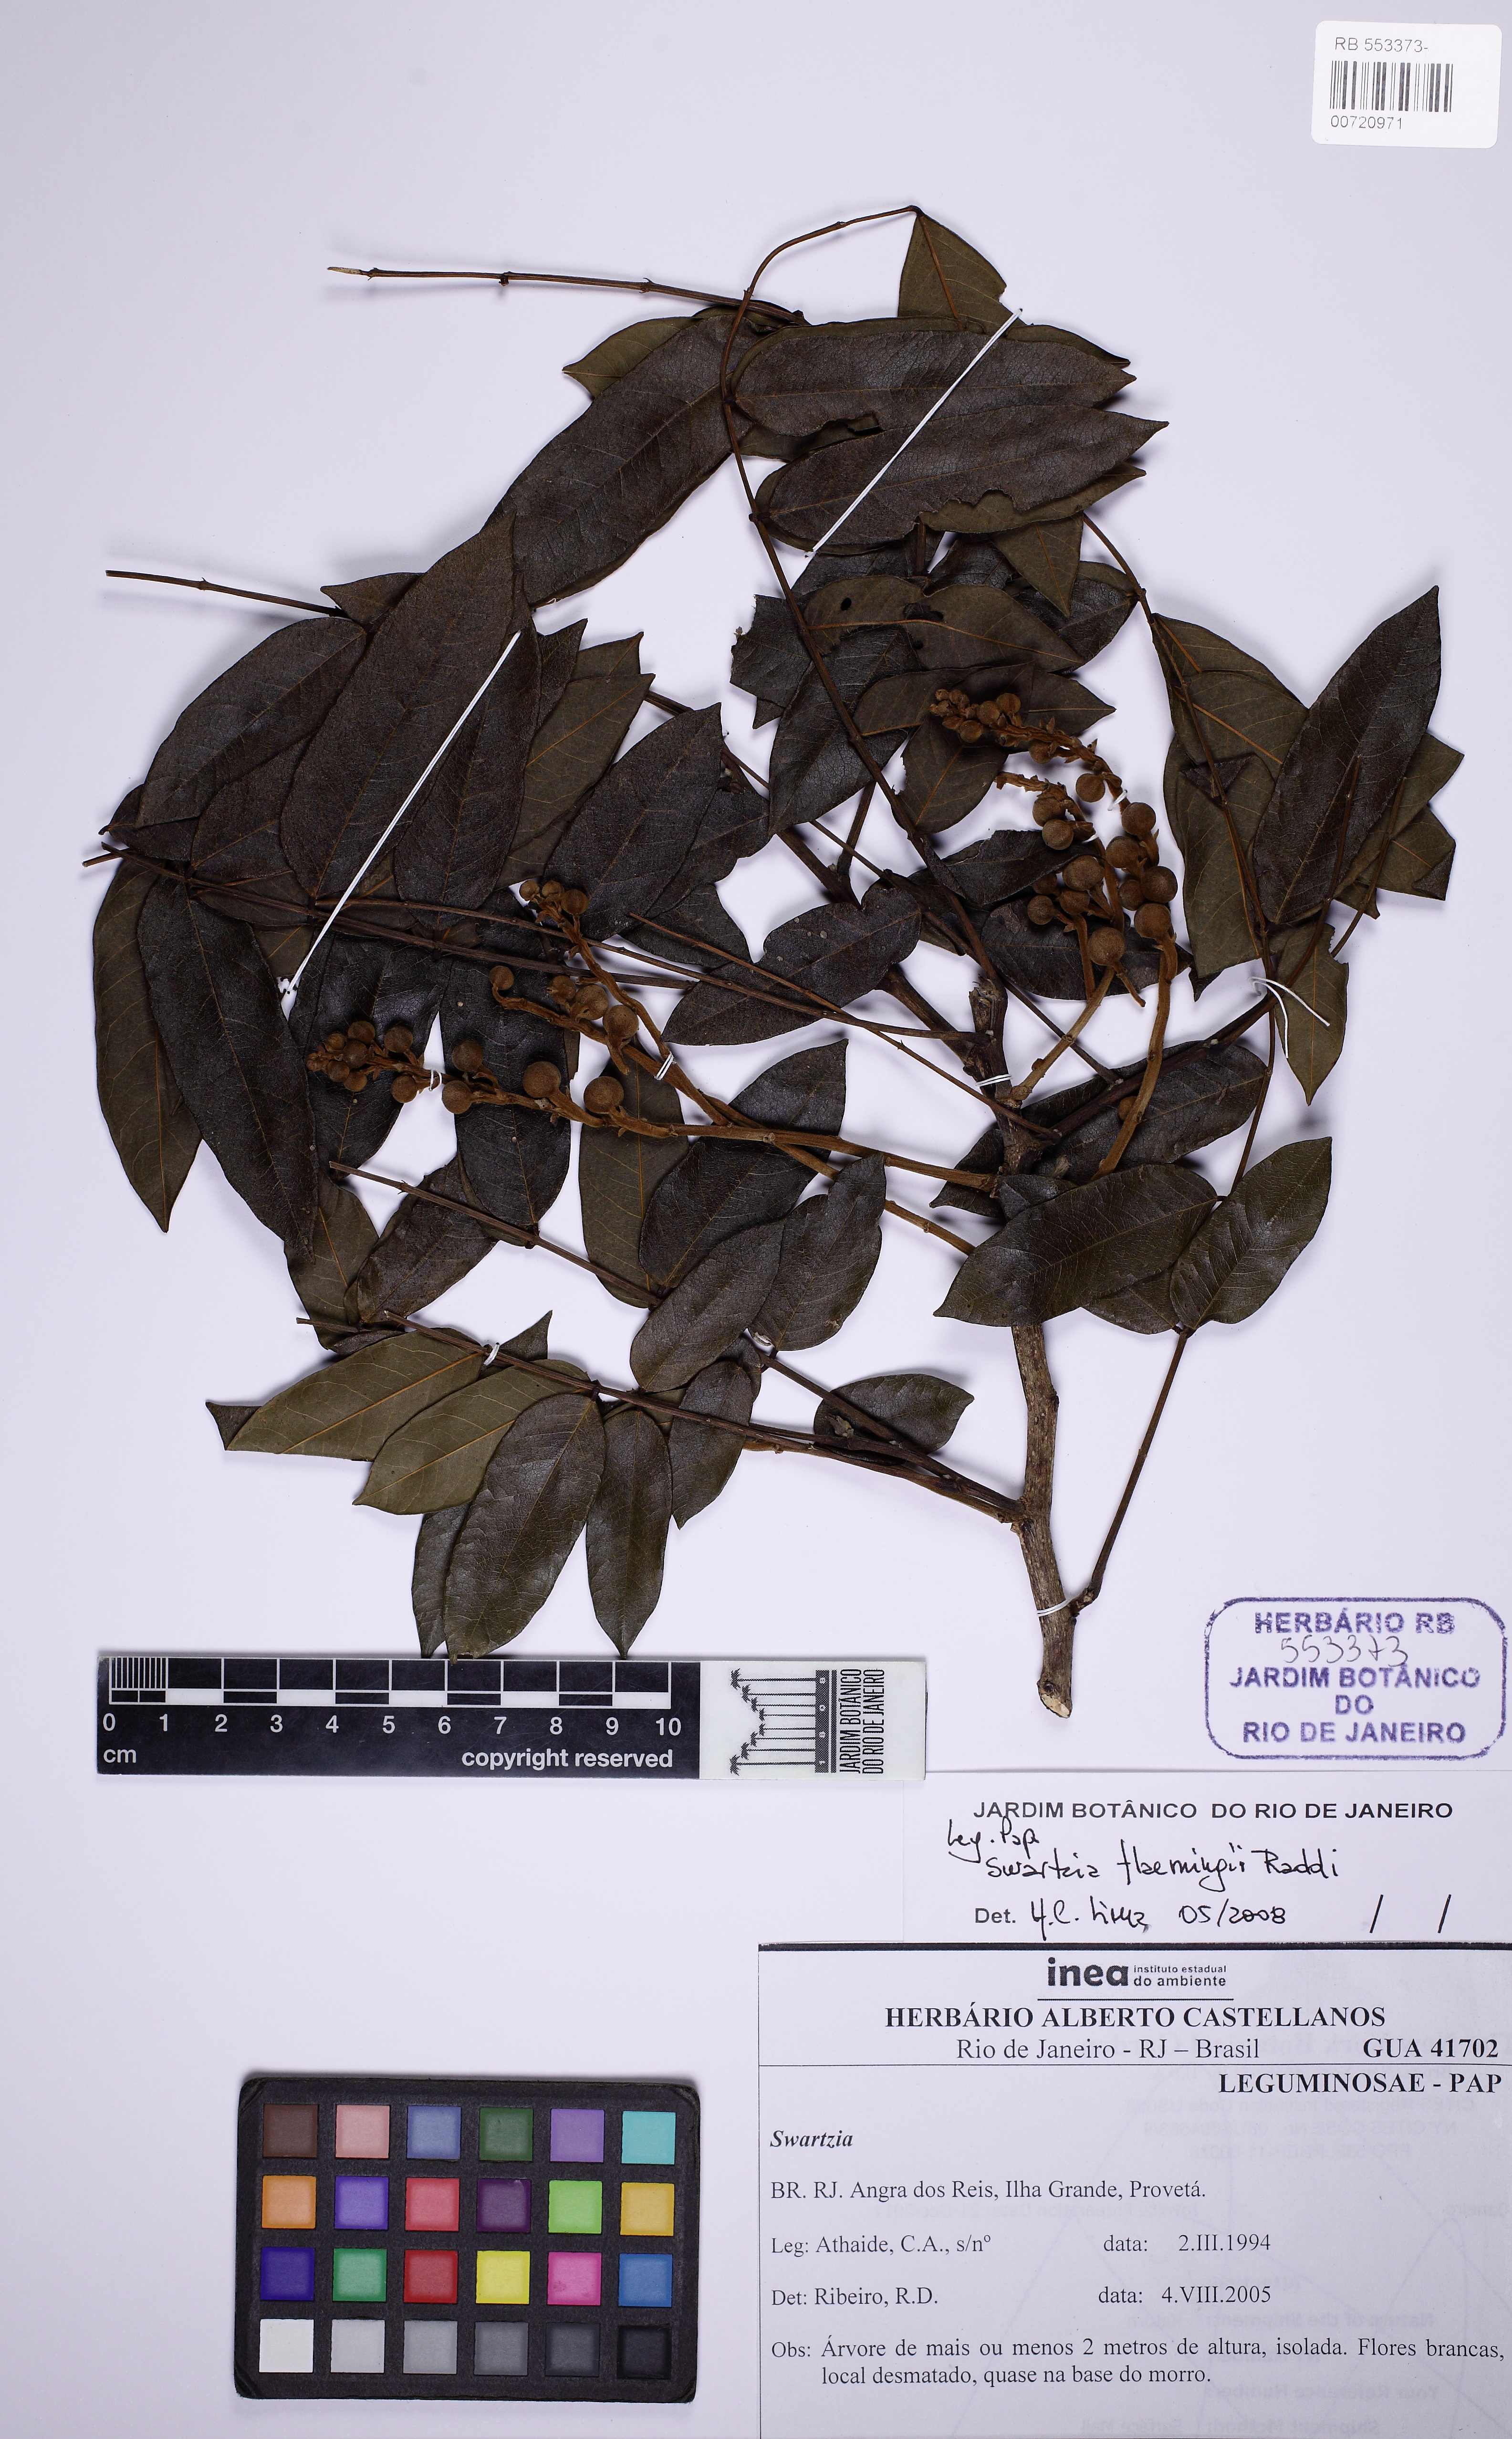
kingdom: Plantae
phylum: Tracheophyta
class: Magnoliopsida
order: Fabales
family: Fabaceae
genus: Swartzia
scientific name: Swartzia flaemingii
